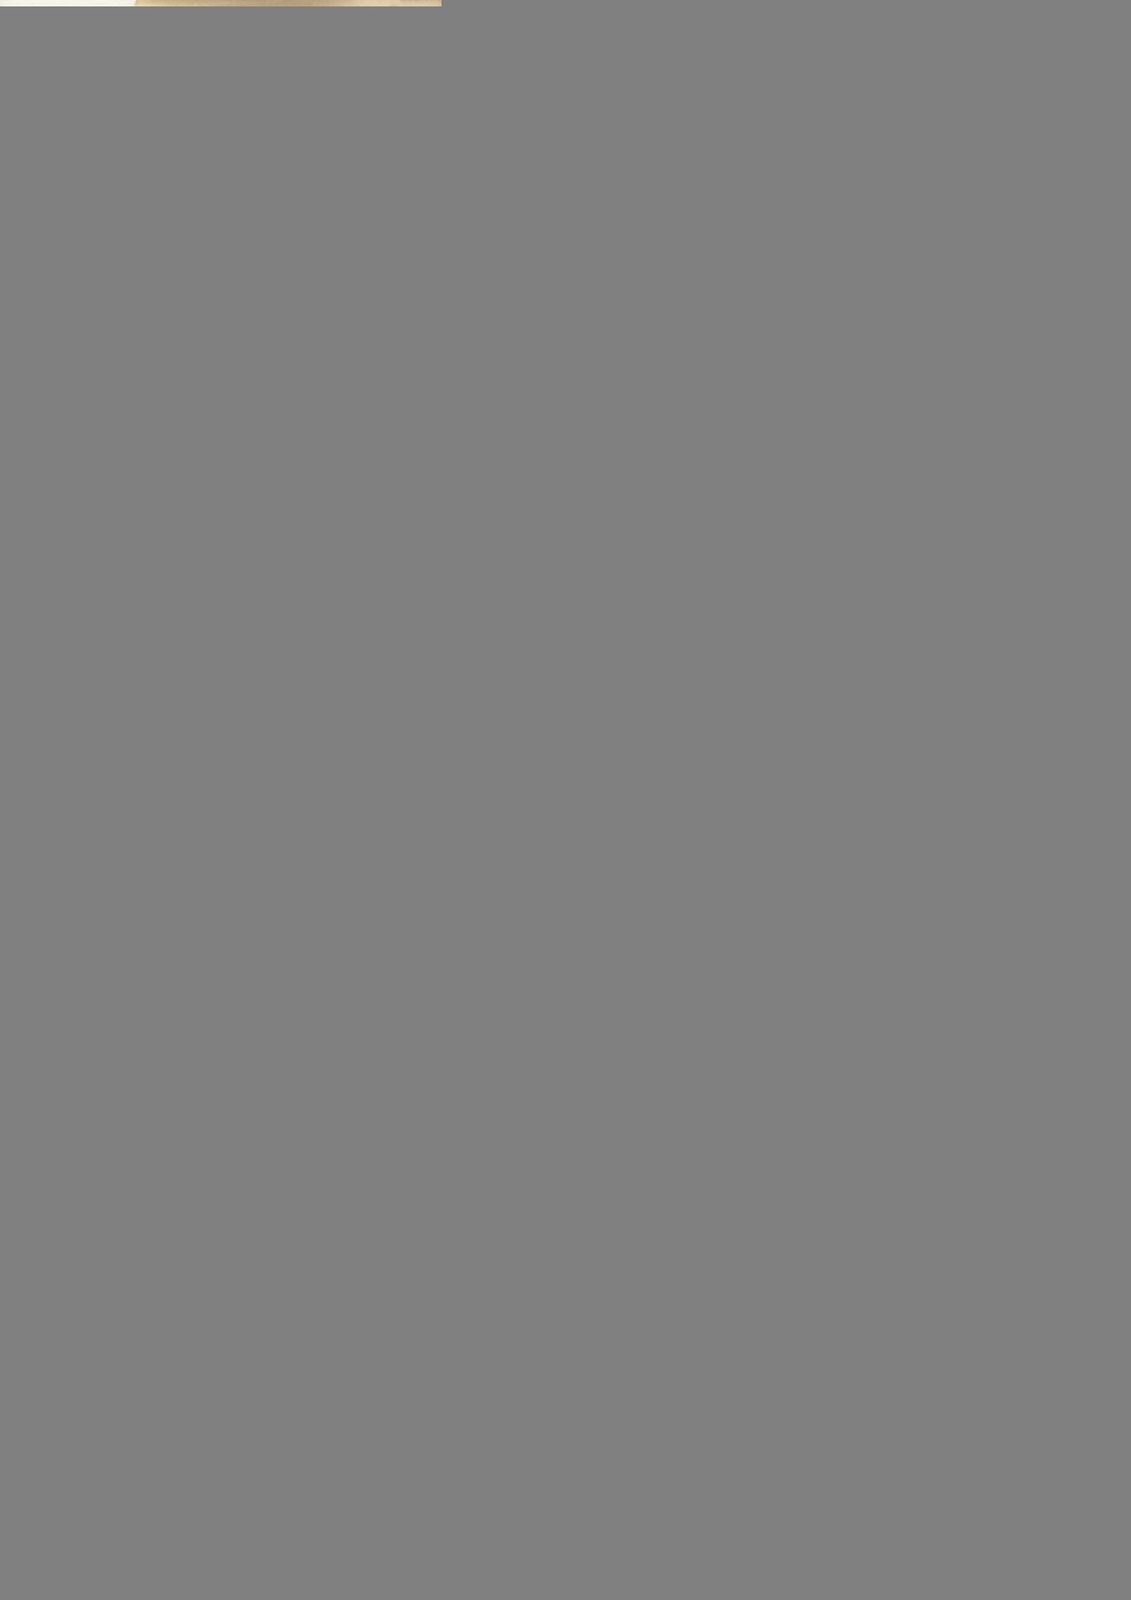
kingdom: Plantae
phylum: Tracheophyta
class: Magnoliopsida
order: Asterales
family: Asteraceae
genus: Baccharis
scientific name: Baccharis auriculigera
